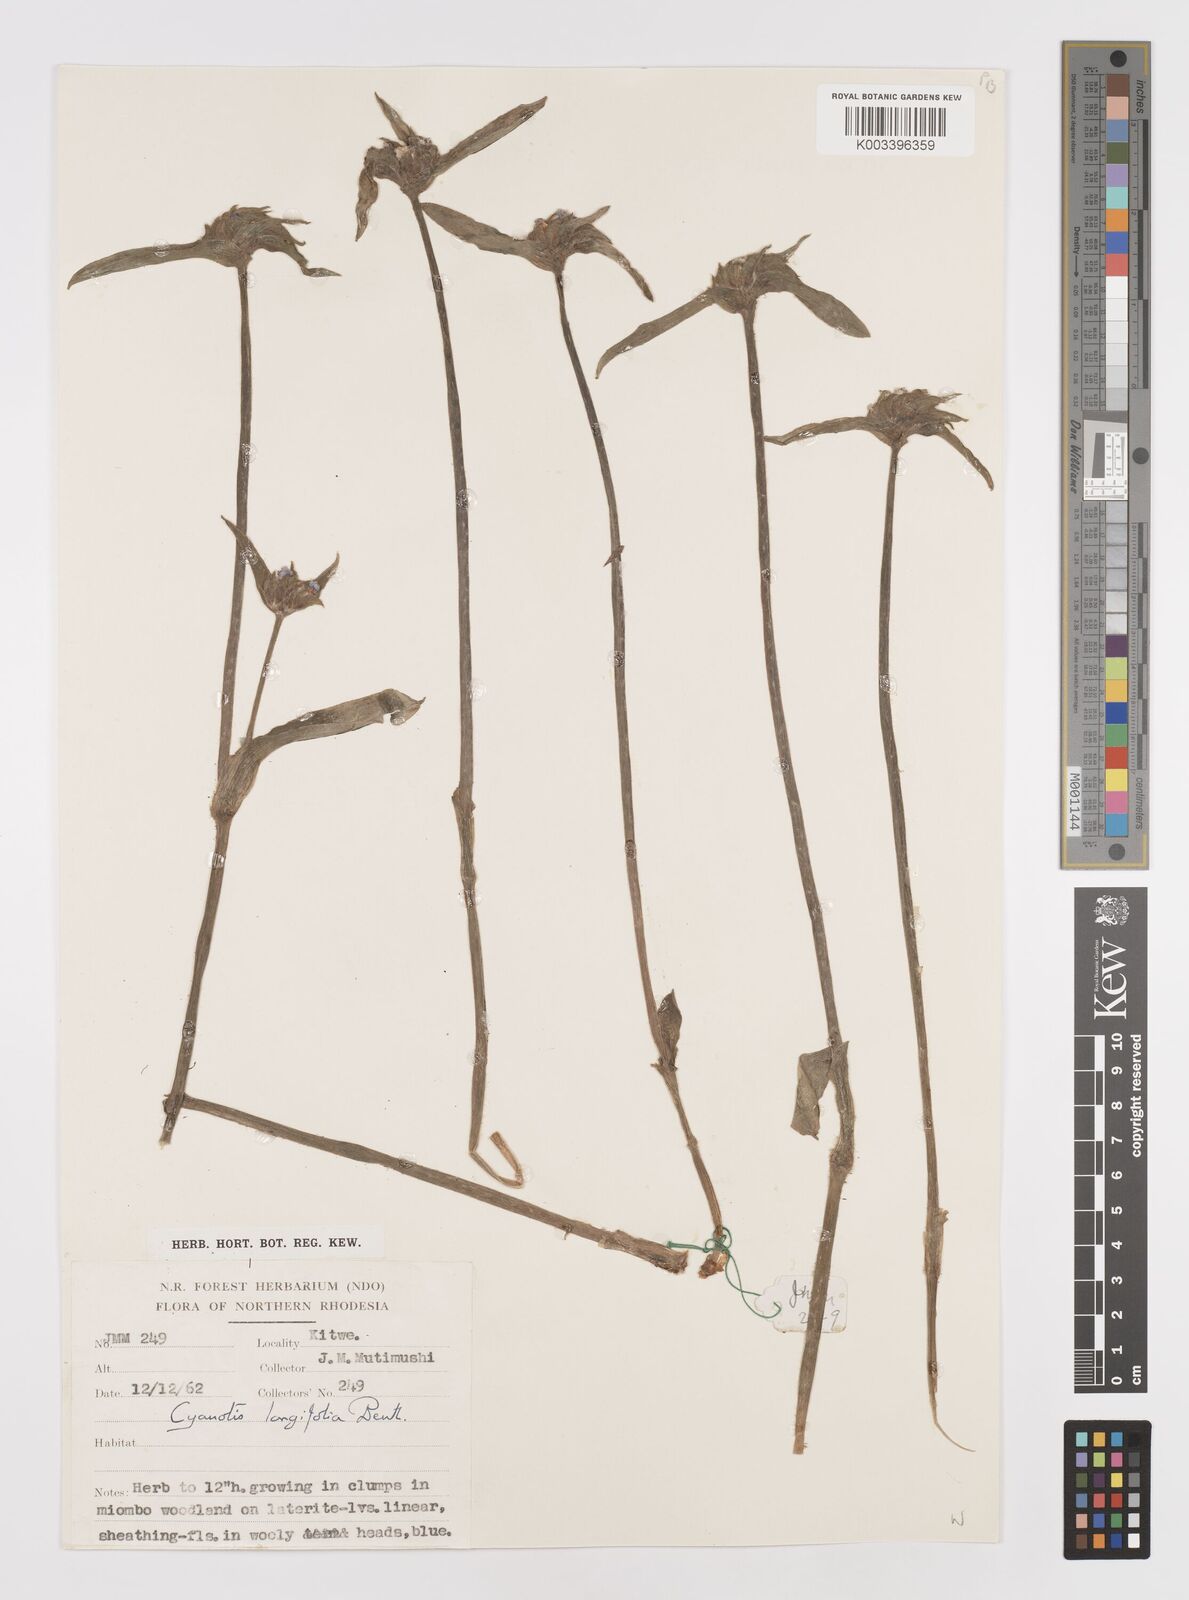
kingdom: Plantae
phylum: Tracheophyta
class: Liliopsida
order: Commelinales
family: Commelinaceae
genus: Cyanotis
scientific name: Cyanotis longifolia
